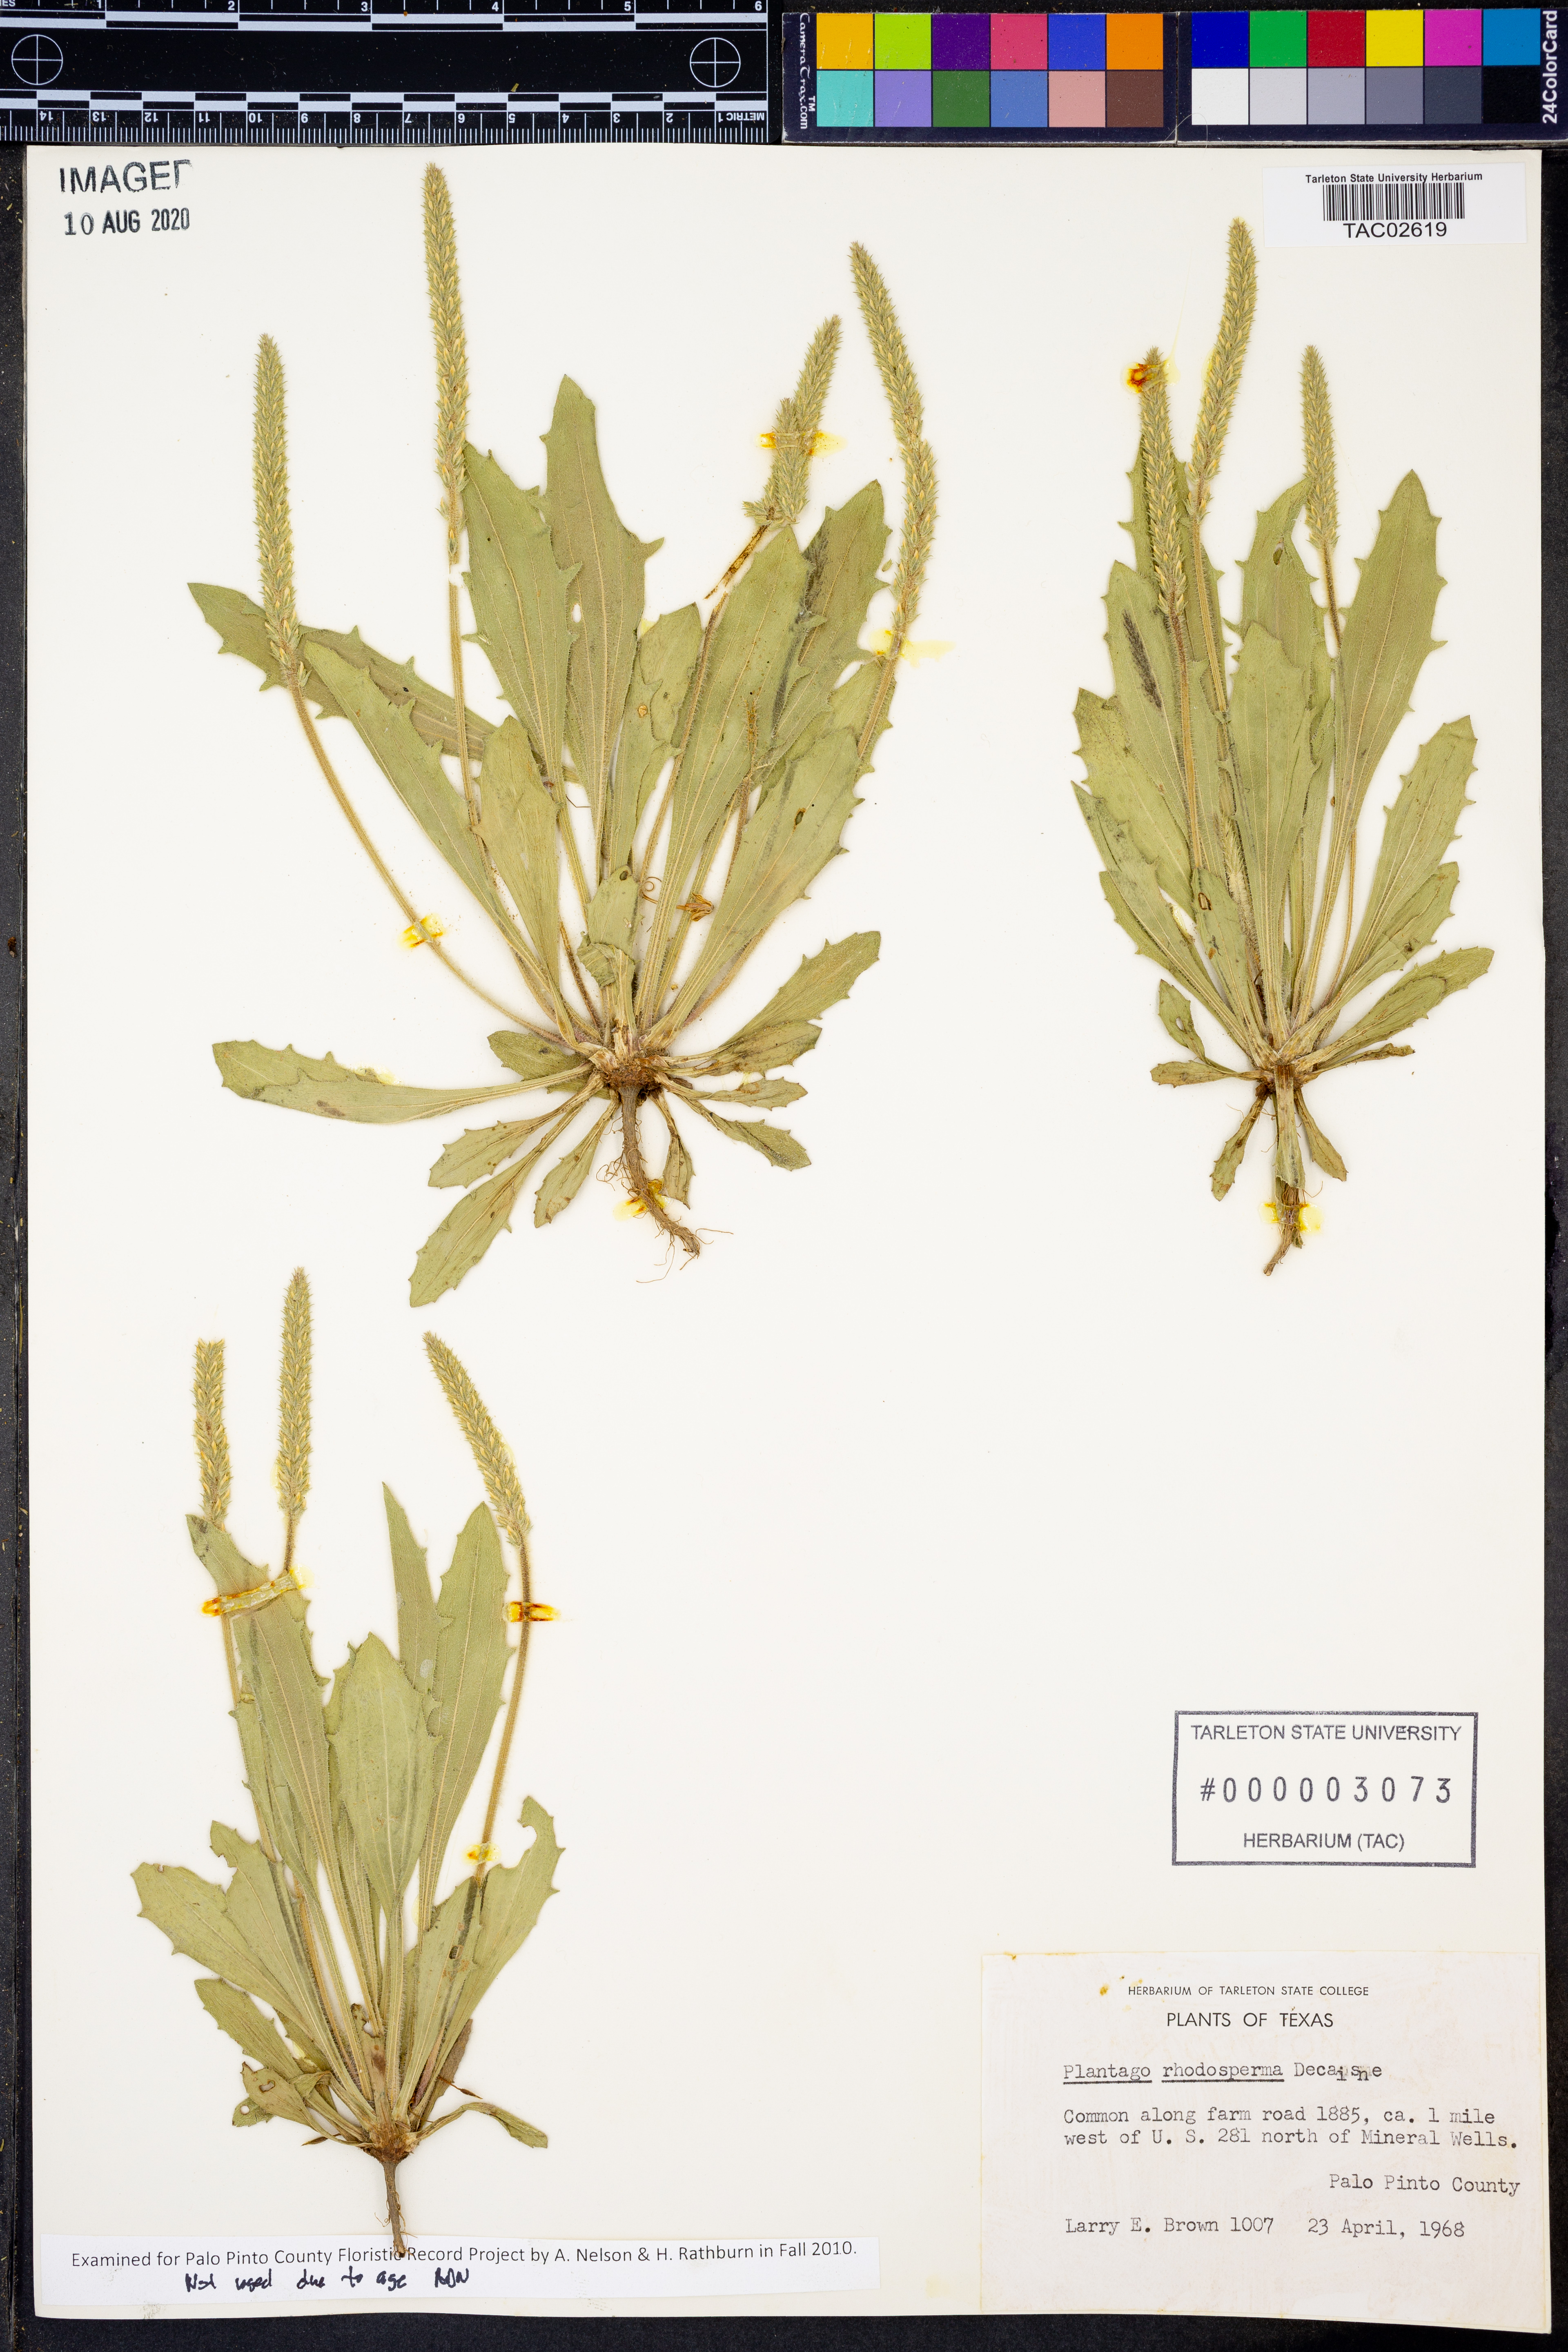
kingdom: Plantae
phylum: Tracheophyta
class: Magnoliopsida
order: Lamiales
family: Plantaginaceae
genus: Plantago
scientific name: Plantago rhodosperma
